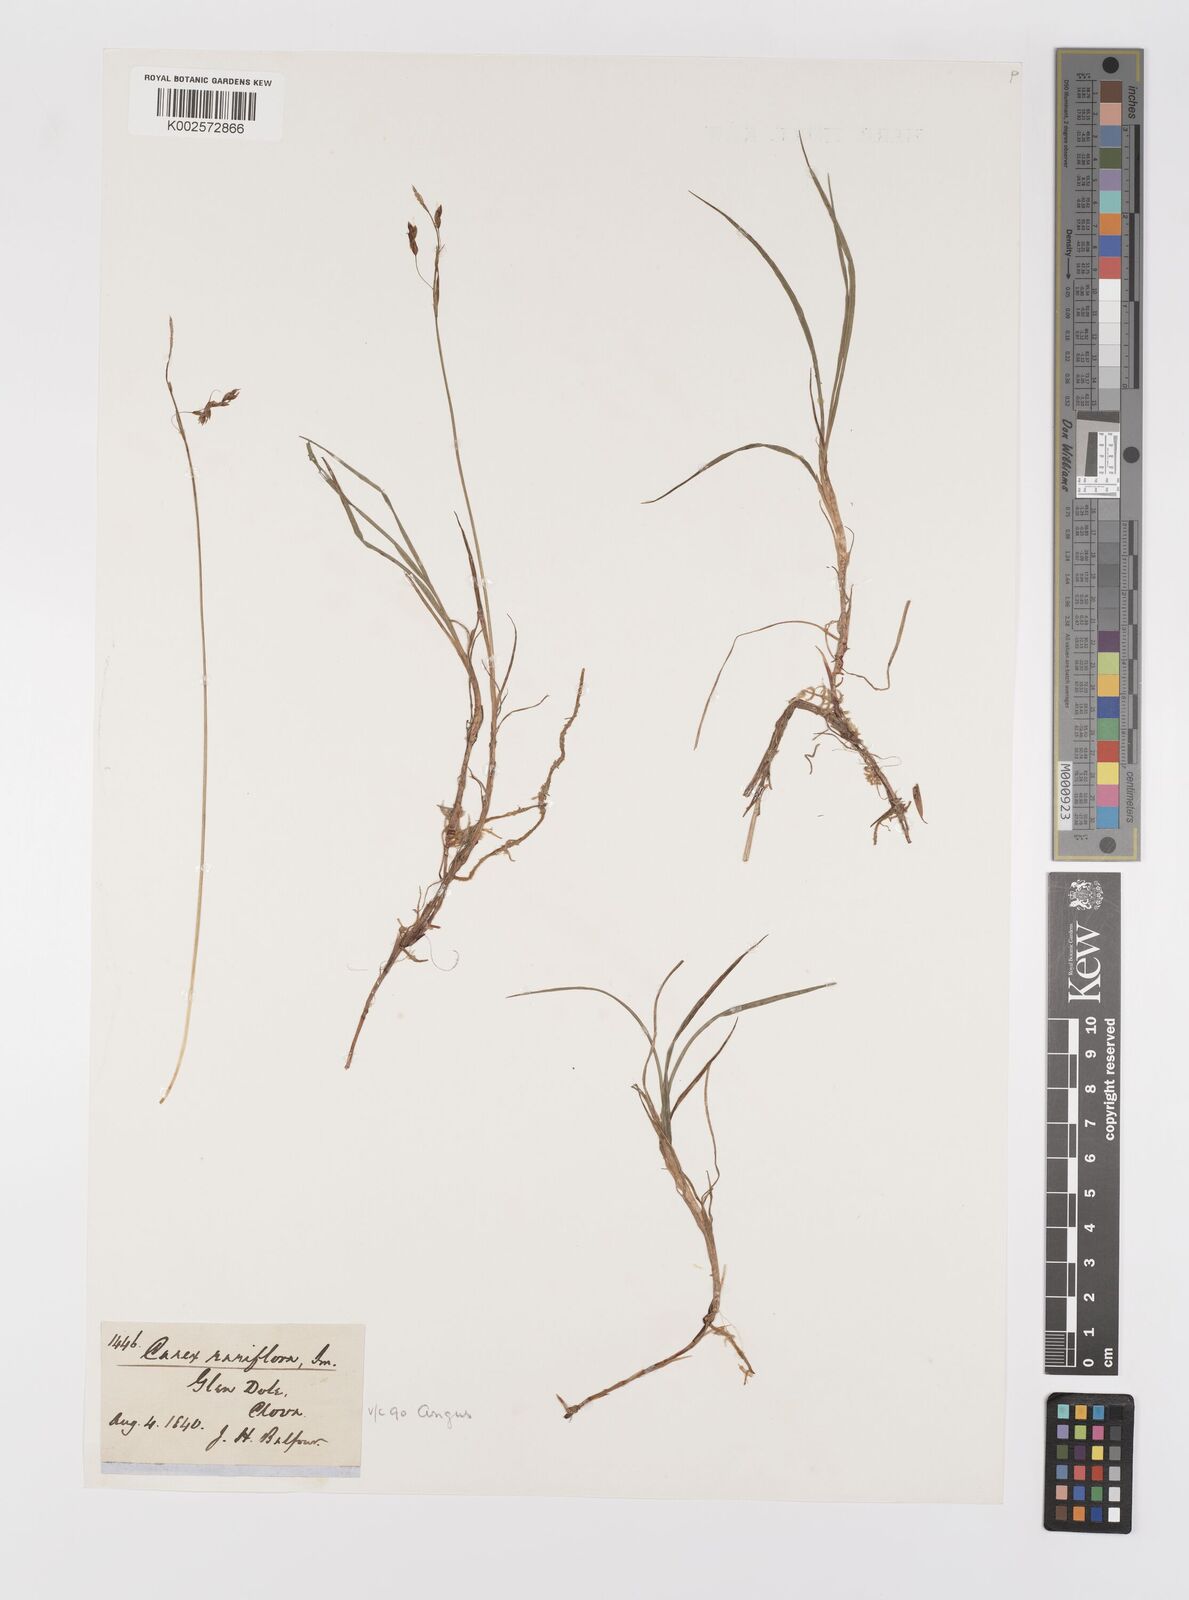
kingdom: Plantae
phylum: Tracheophyta
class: Liliopsida
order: Poales
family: Cyperaceae
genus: Carex
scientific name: Carex rariflora
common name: Loose-flowered alpine sedge
